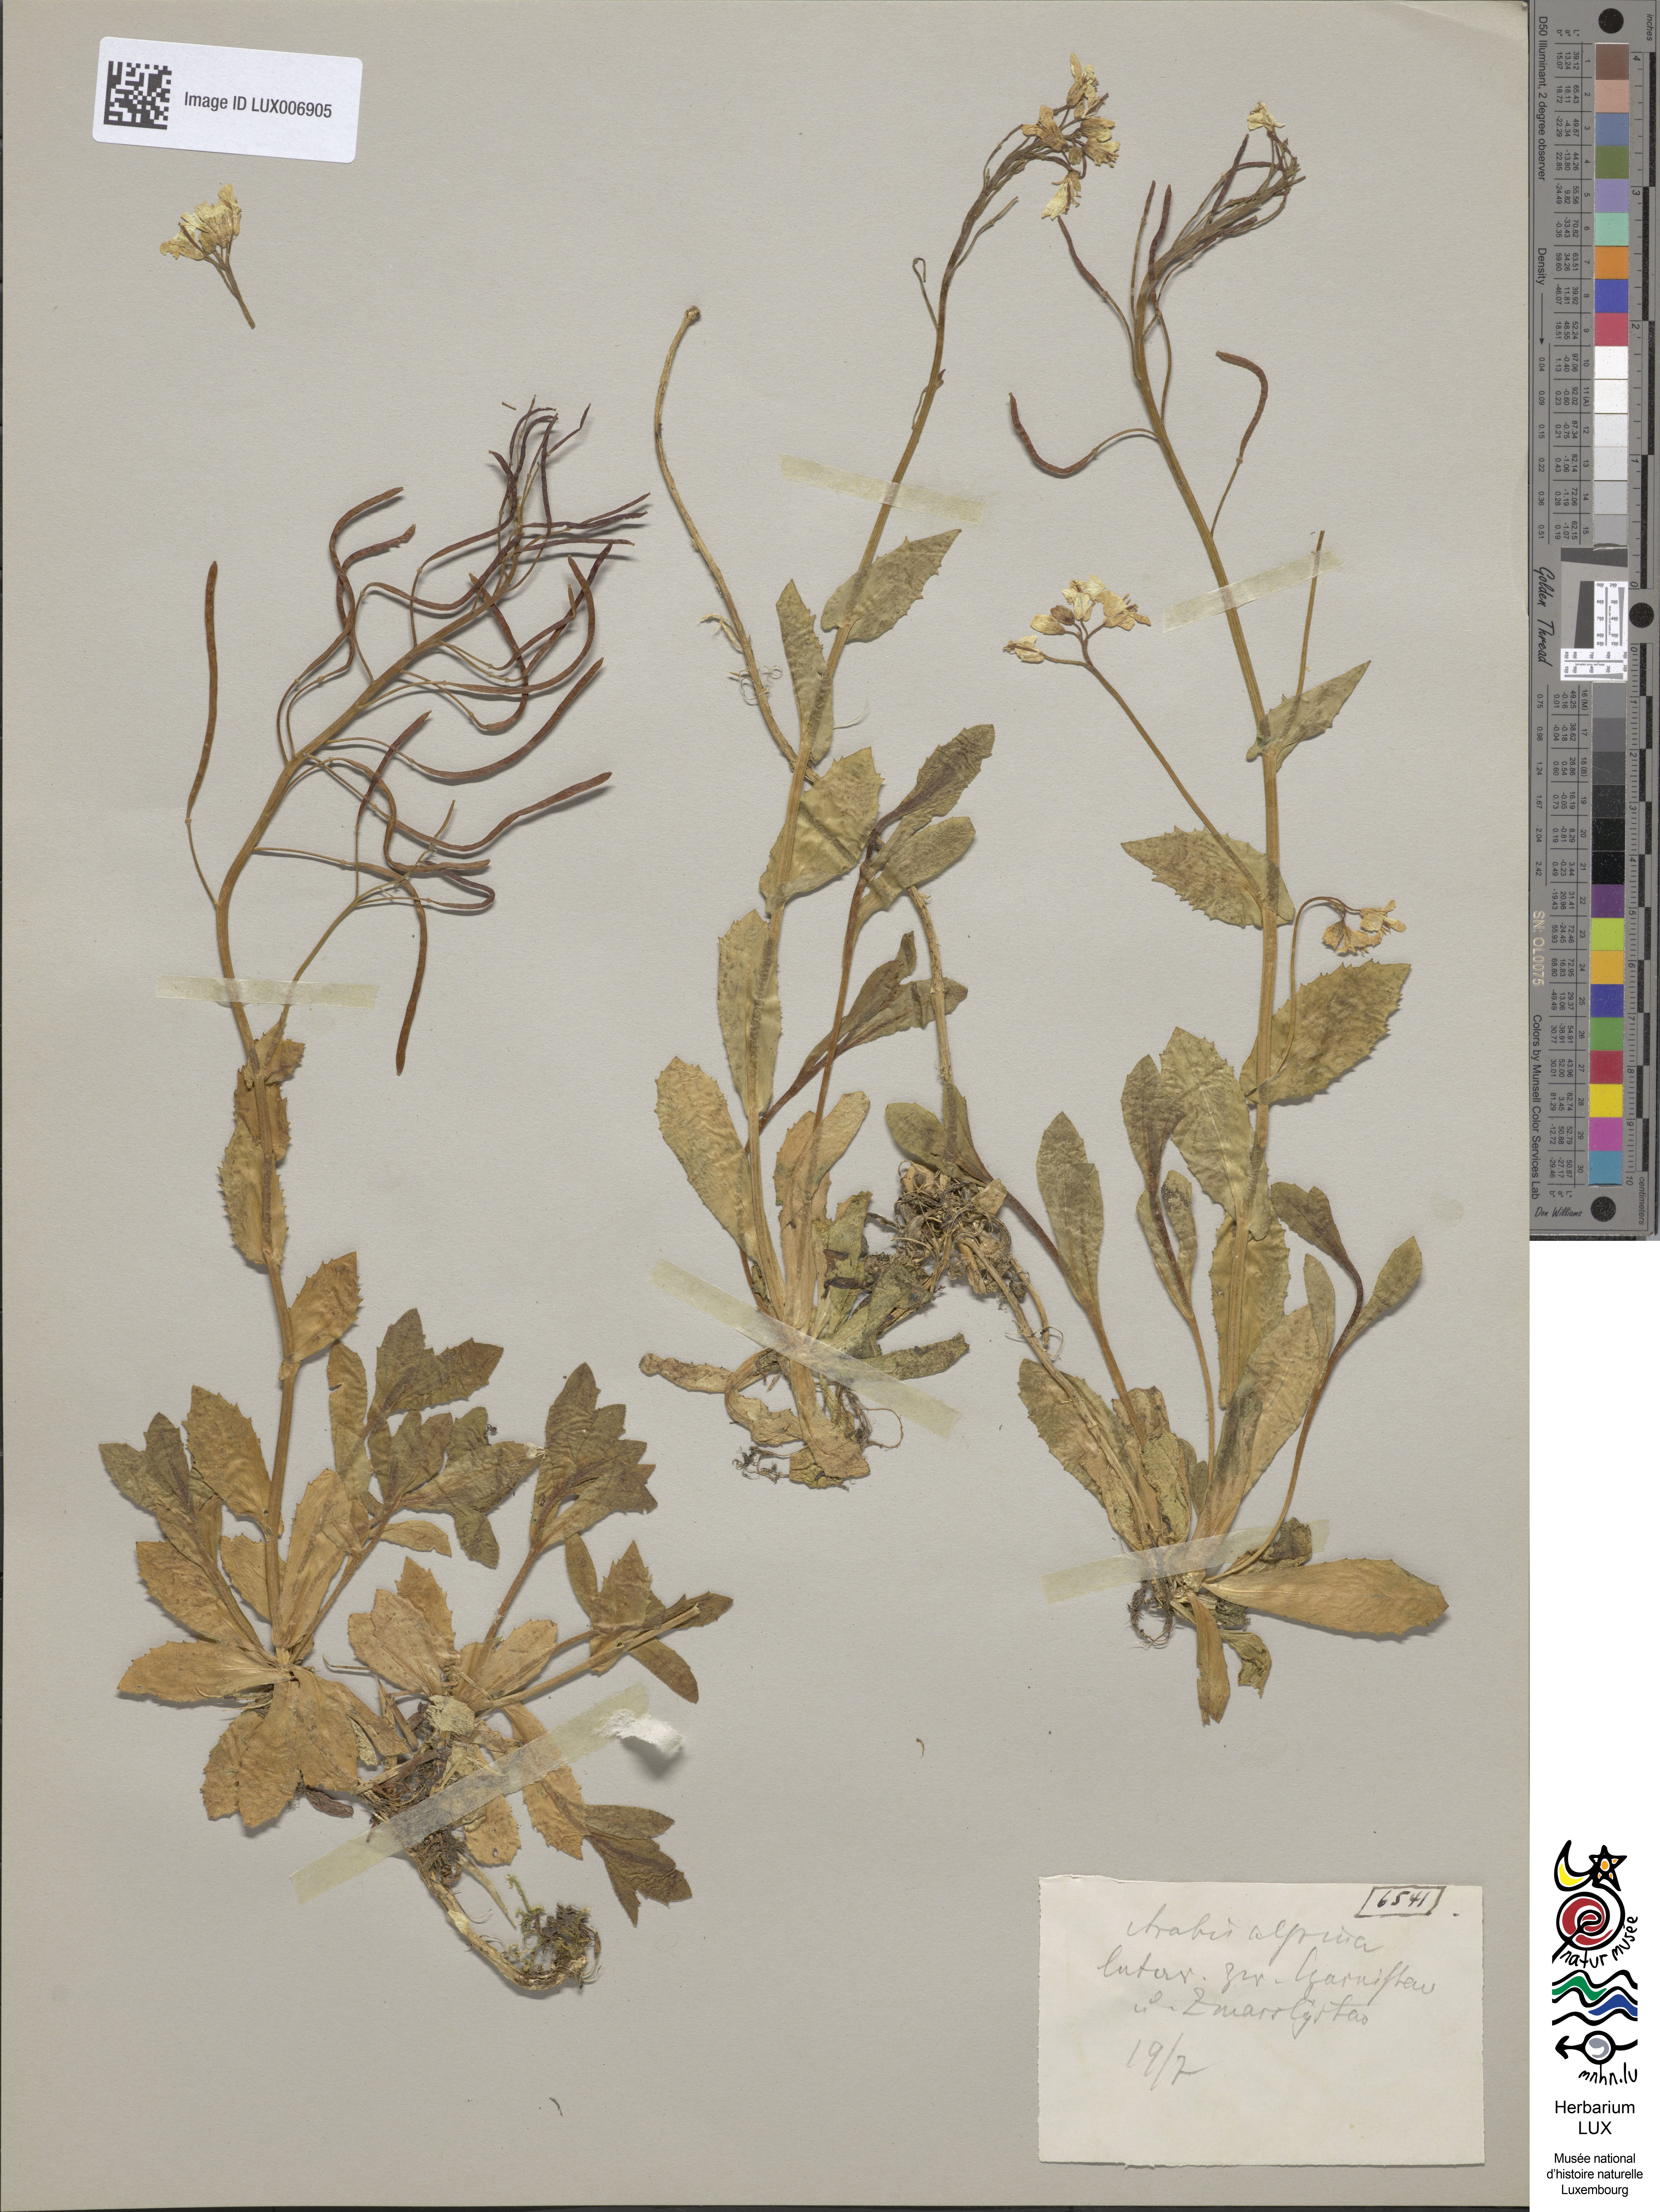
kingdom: Plantae
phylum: Tracheophyta
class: Magnoliopsida
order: Brassicales
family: Brassicaceae
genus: Arabis
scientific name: Arabis alpina
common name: Alpine rock-cress
